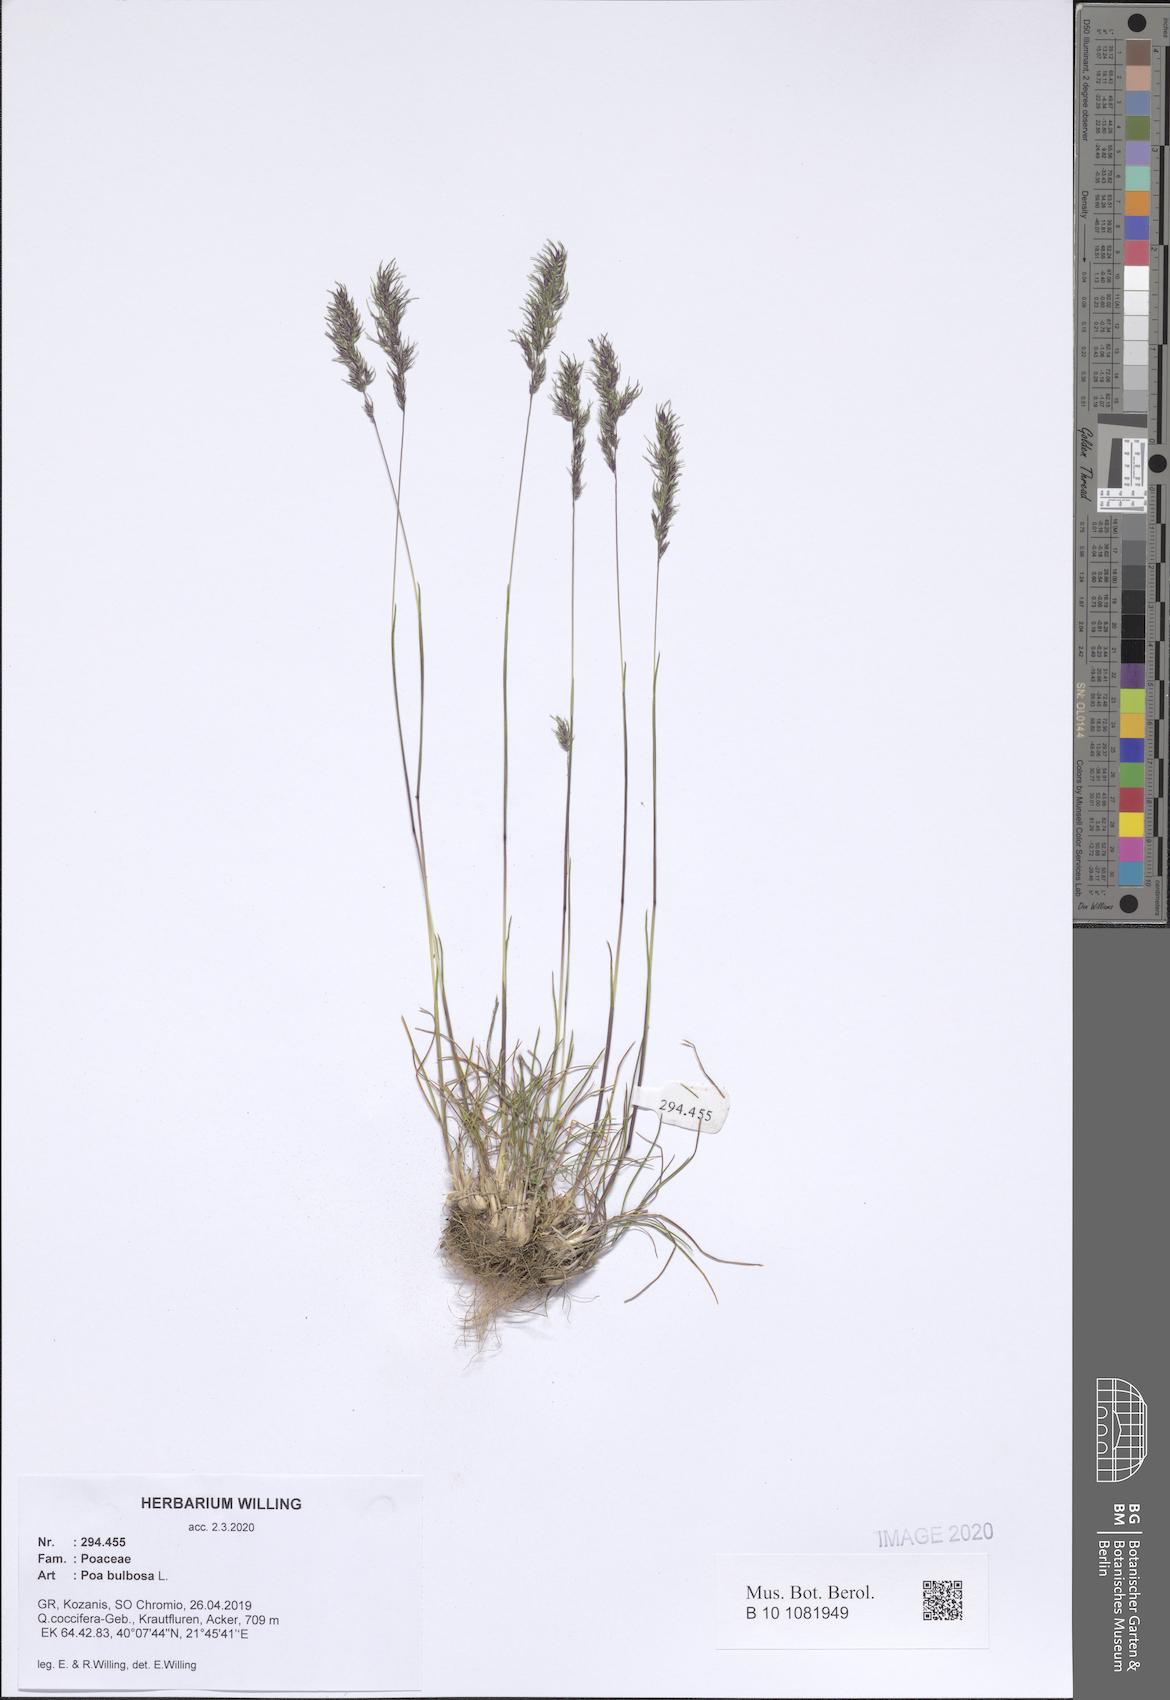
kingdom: Plantae
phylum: Tracheophyta
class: Liliopsida
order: Poales
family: Poaceae
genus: Poa
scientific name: Poa bulbosa
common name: Bulbous bluegrass
